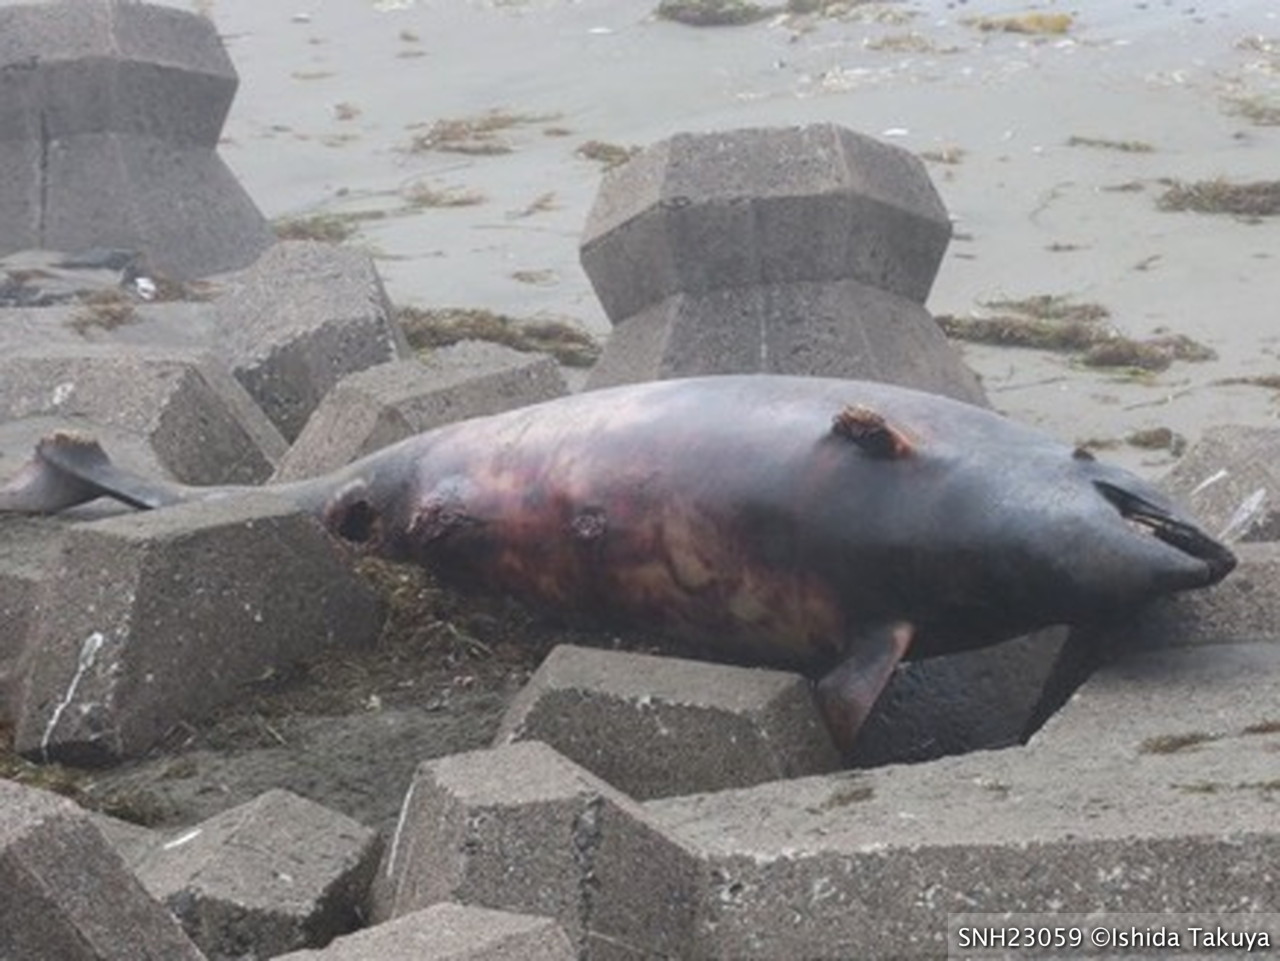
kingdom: Animalia
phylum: Chordata
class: Mammalia
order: Cetacea
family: Delphinidae
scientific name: Delphinidae
